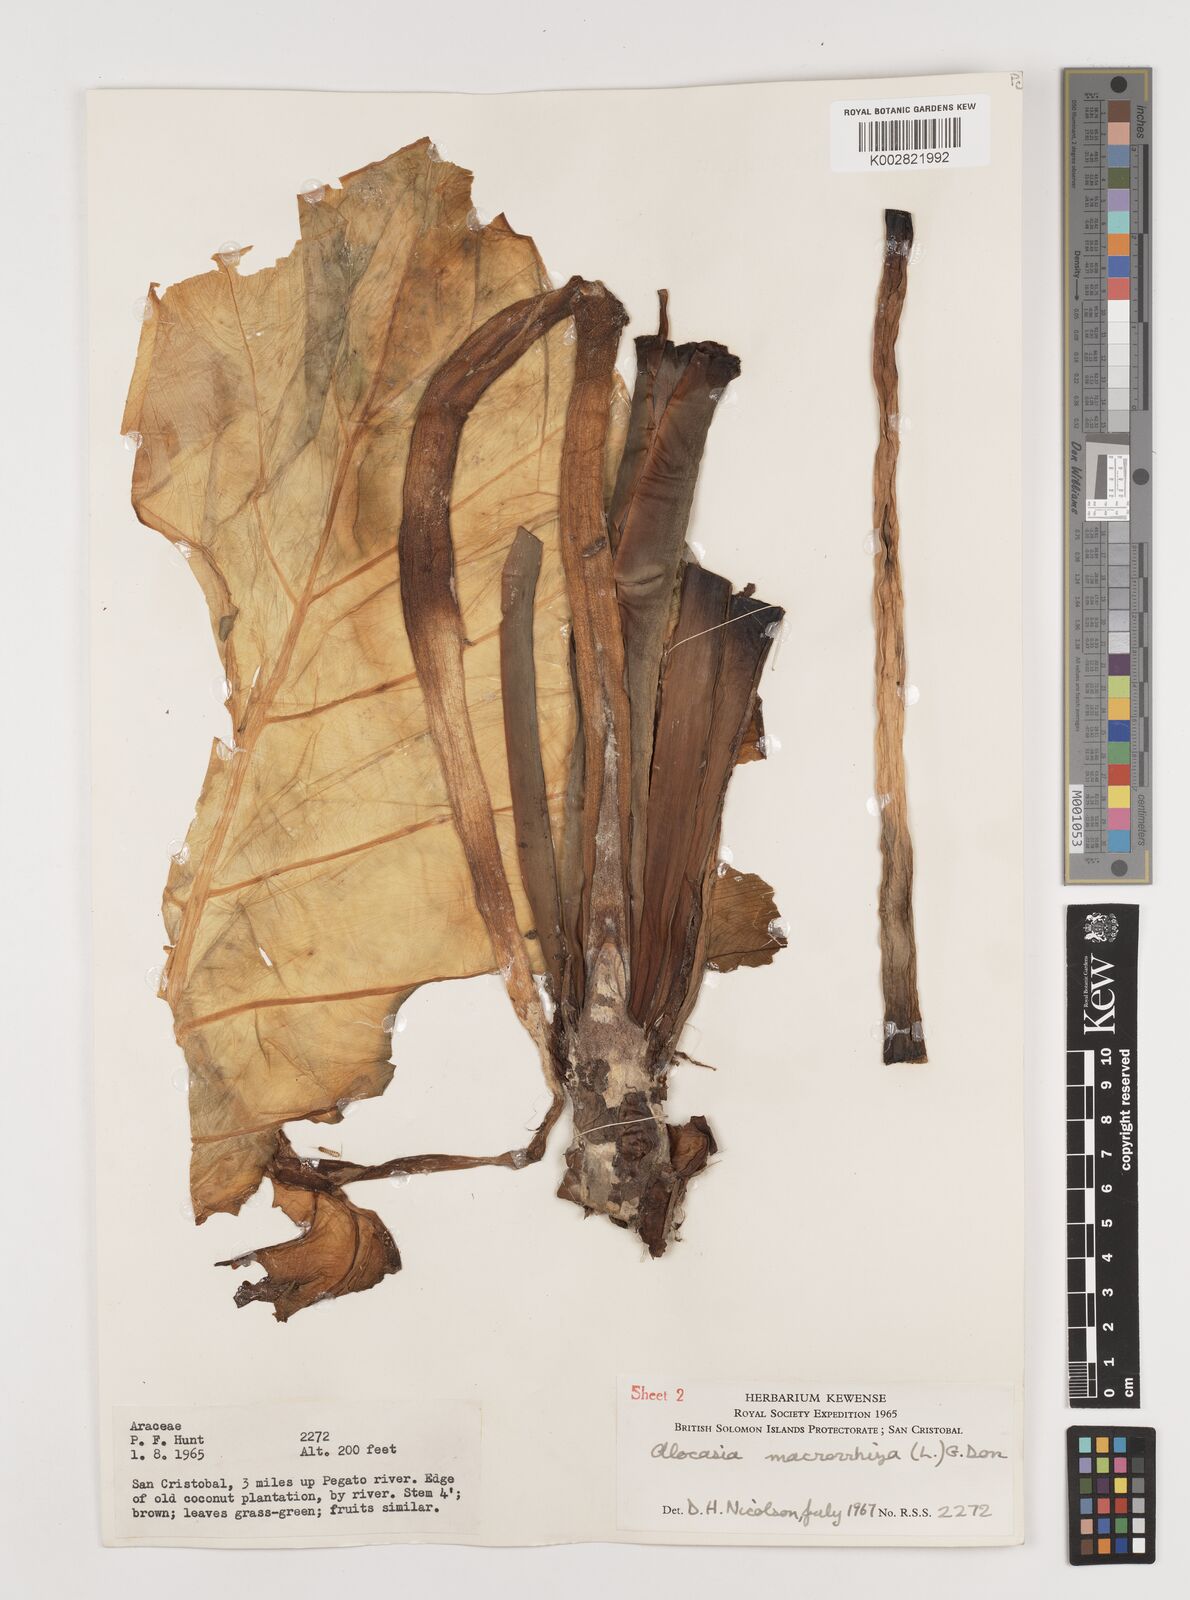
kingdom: Plantae
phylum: Tracheophyta
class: Liliopsida
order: Alismatales
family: Araceae
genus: Alocasia
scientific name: Alocasia macrorrhizos
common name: Giant taro
